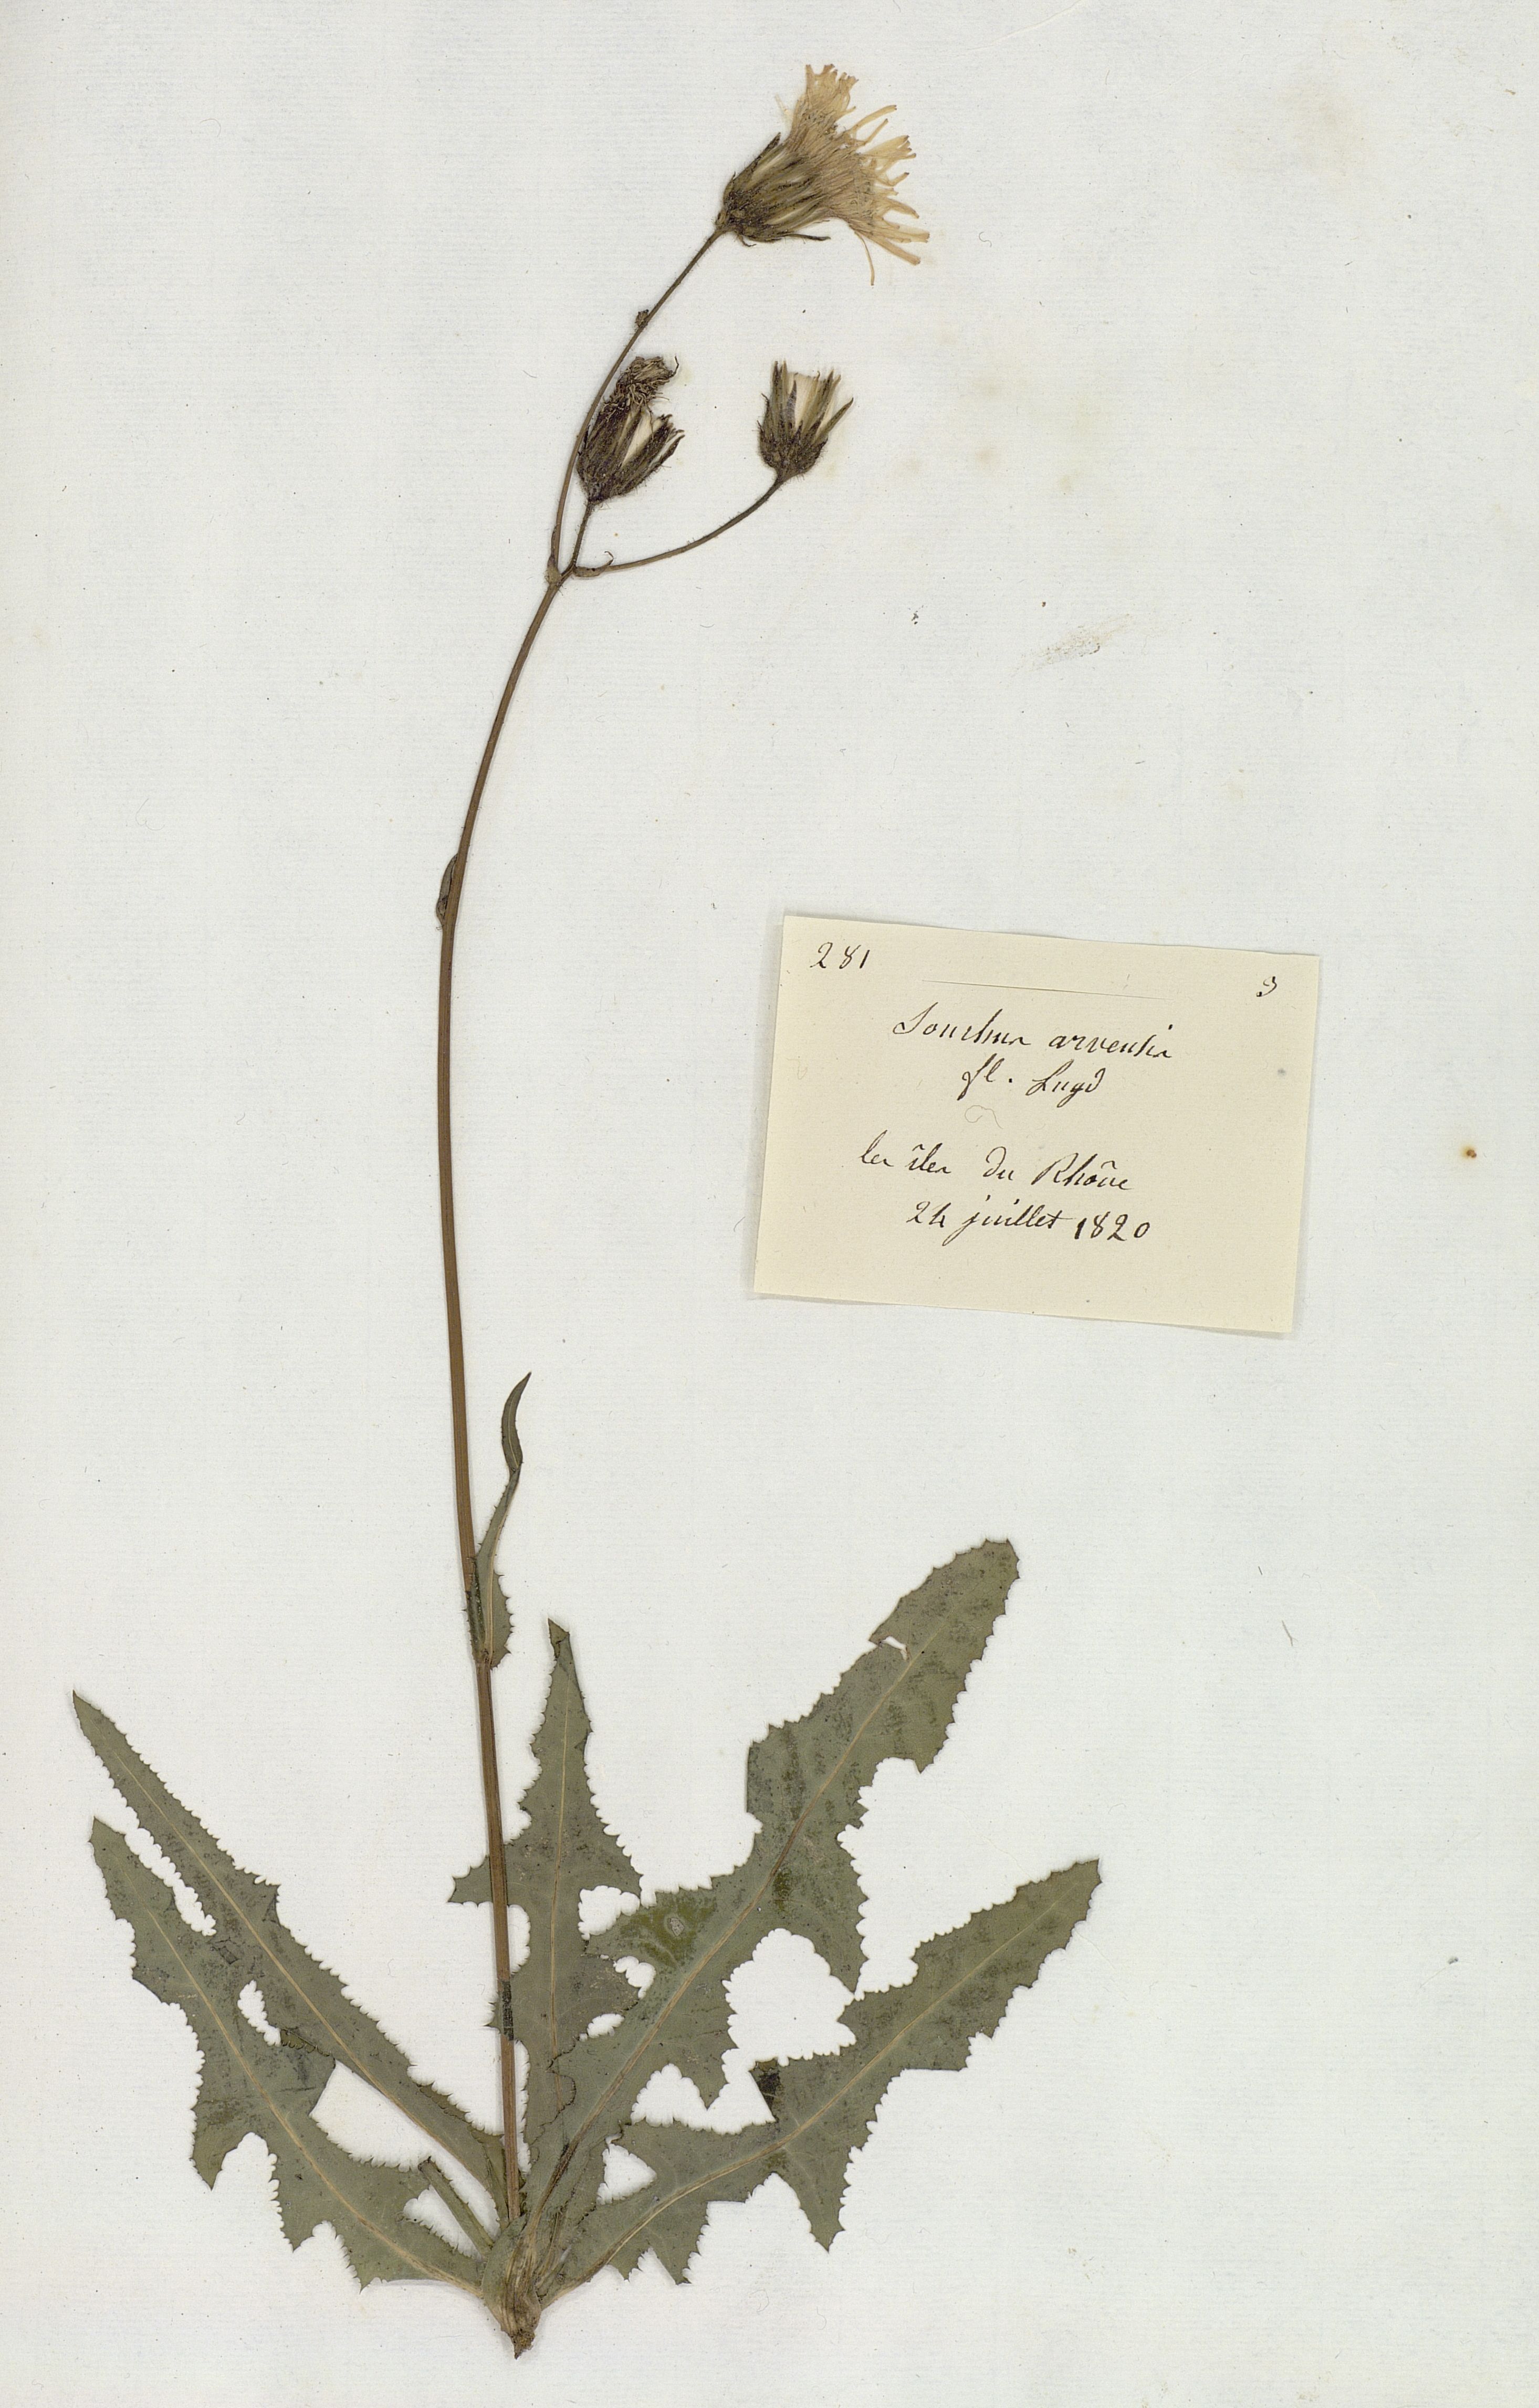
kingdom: Plantae
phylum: Tracheophyta
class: Magnoliopsida
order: Asterales
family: Asteraceae
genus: Sonchus
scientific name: Sonchus arvensis
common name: Perennial sow-thistle
